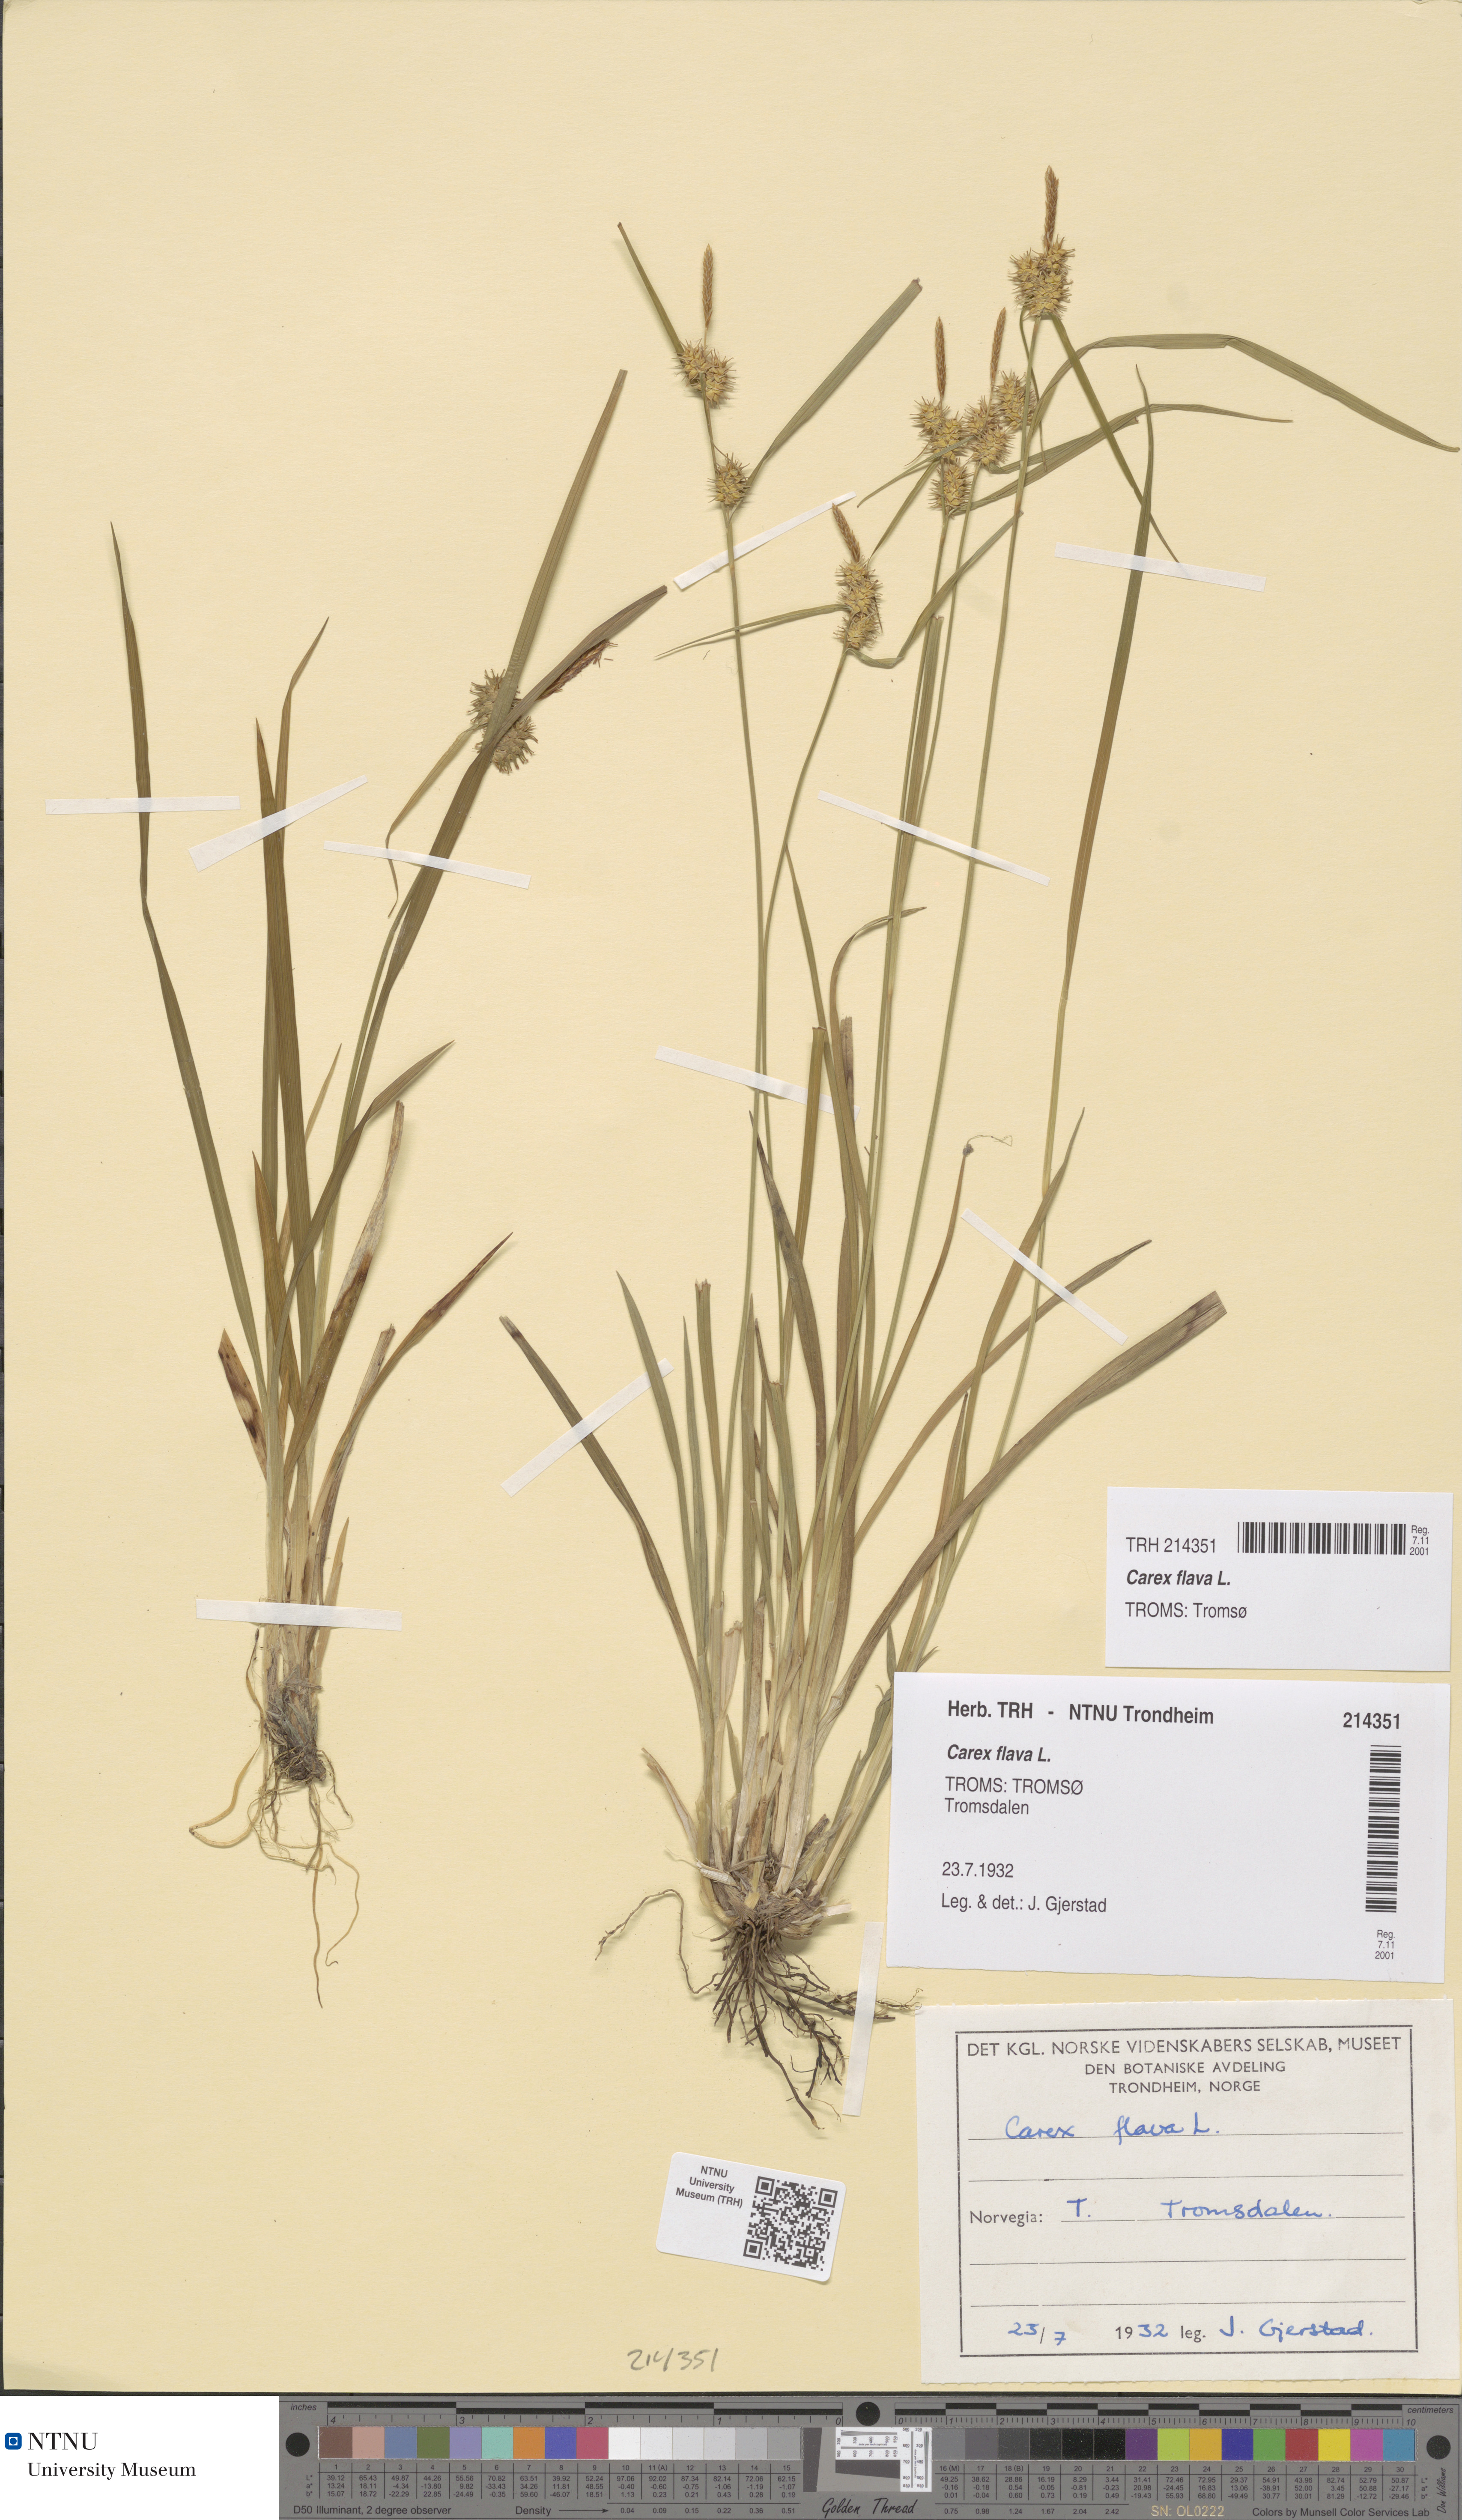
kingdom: Plantae
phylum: Tracheophyta
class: Liliopsida
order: Poales
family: Cyperaceae
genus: Carex
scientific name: Carex flava
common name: Large yellow-sedge
